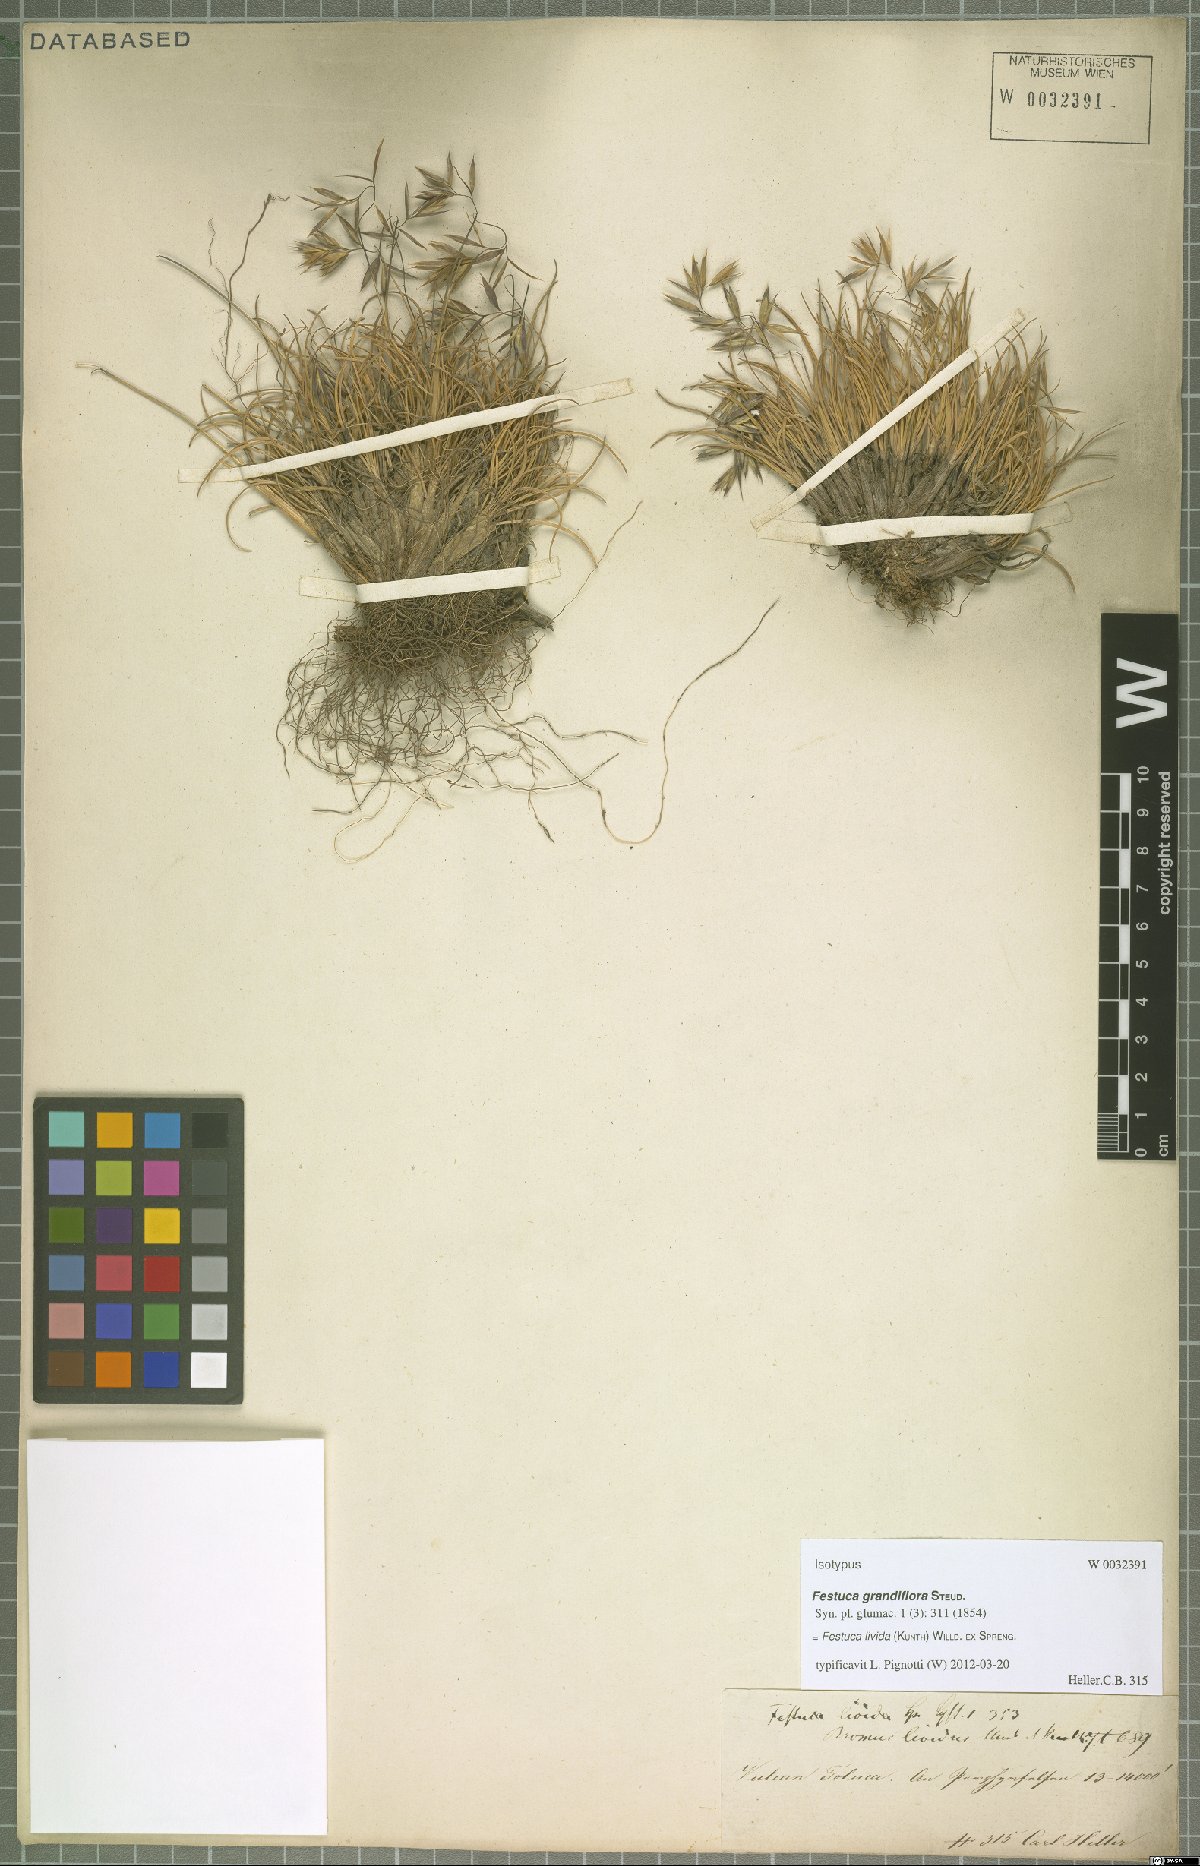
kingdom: Plantae
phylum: Tracheophyta
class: Liliopsida
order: Poales
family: Poaceae
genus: Festuca
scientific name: Festuca livida
